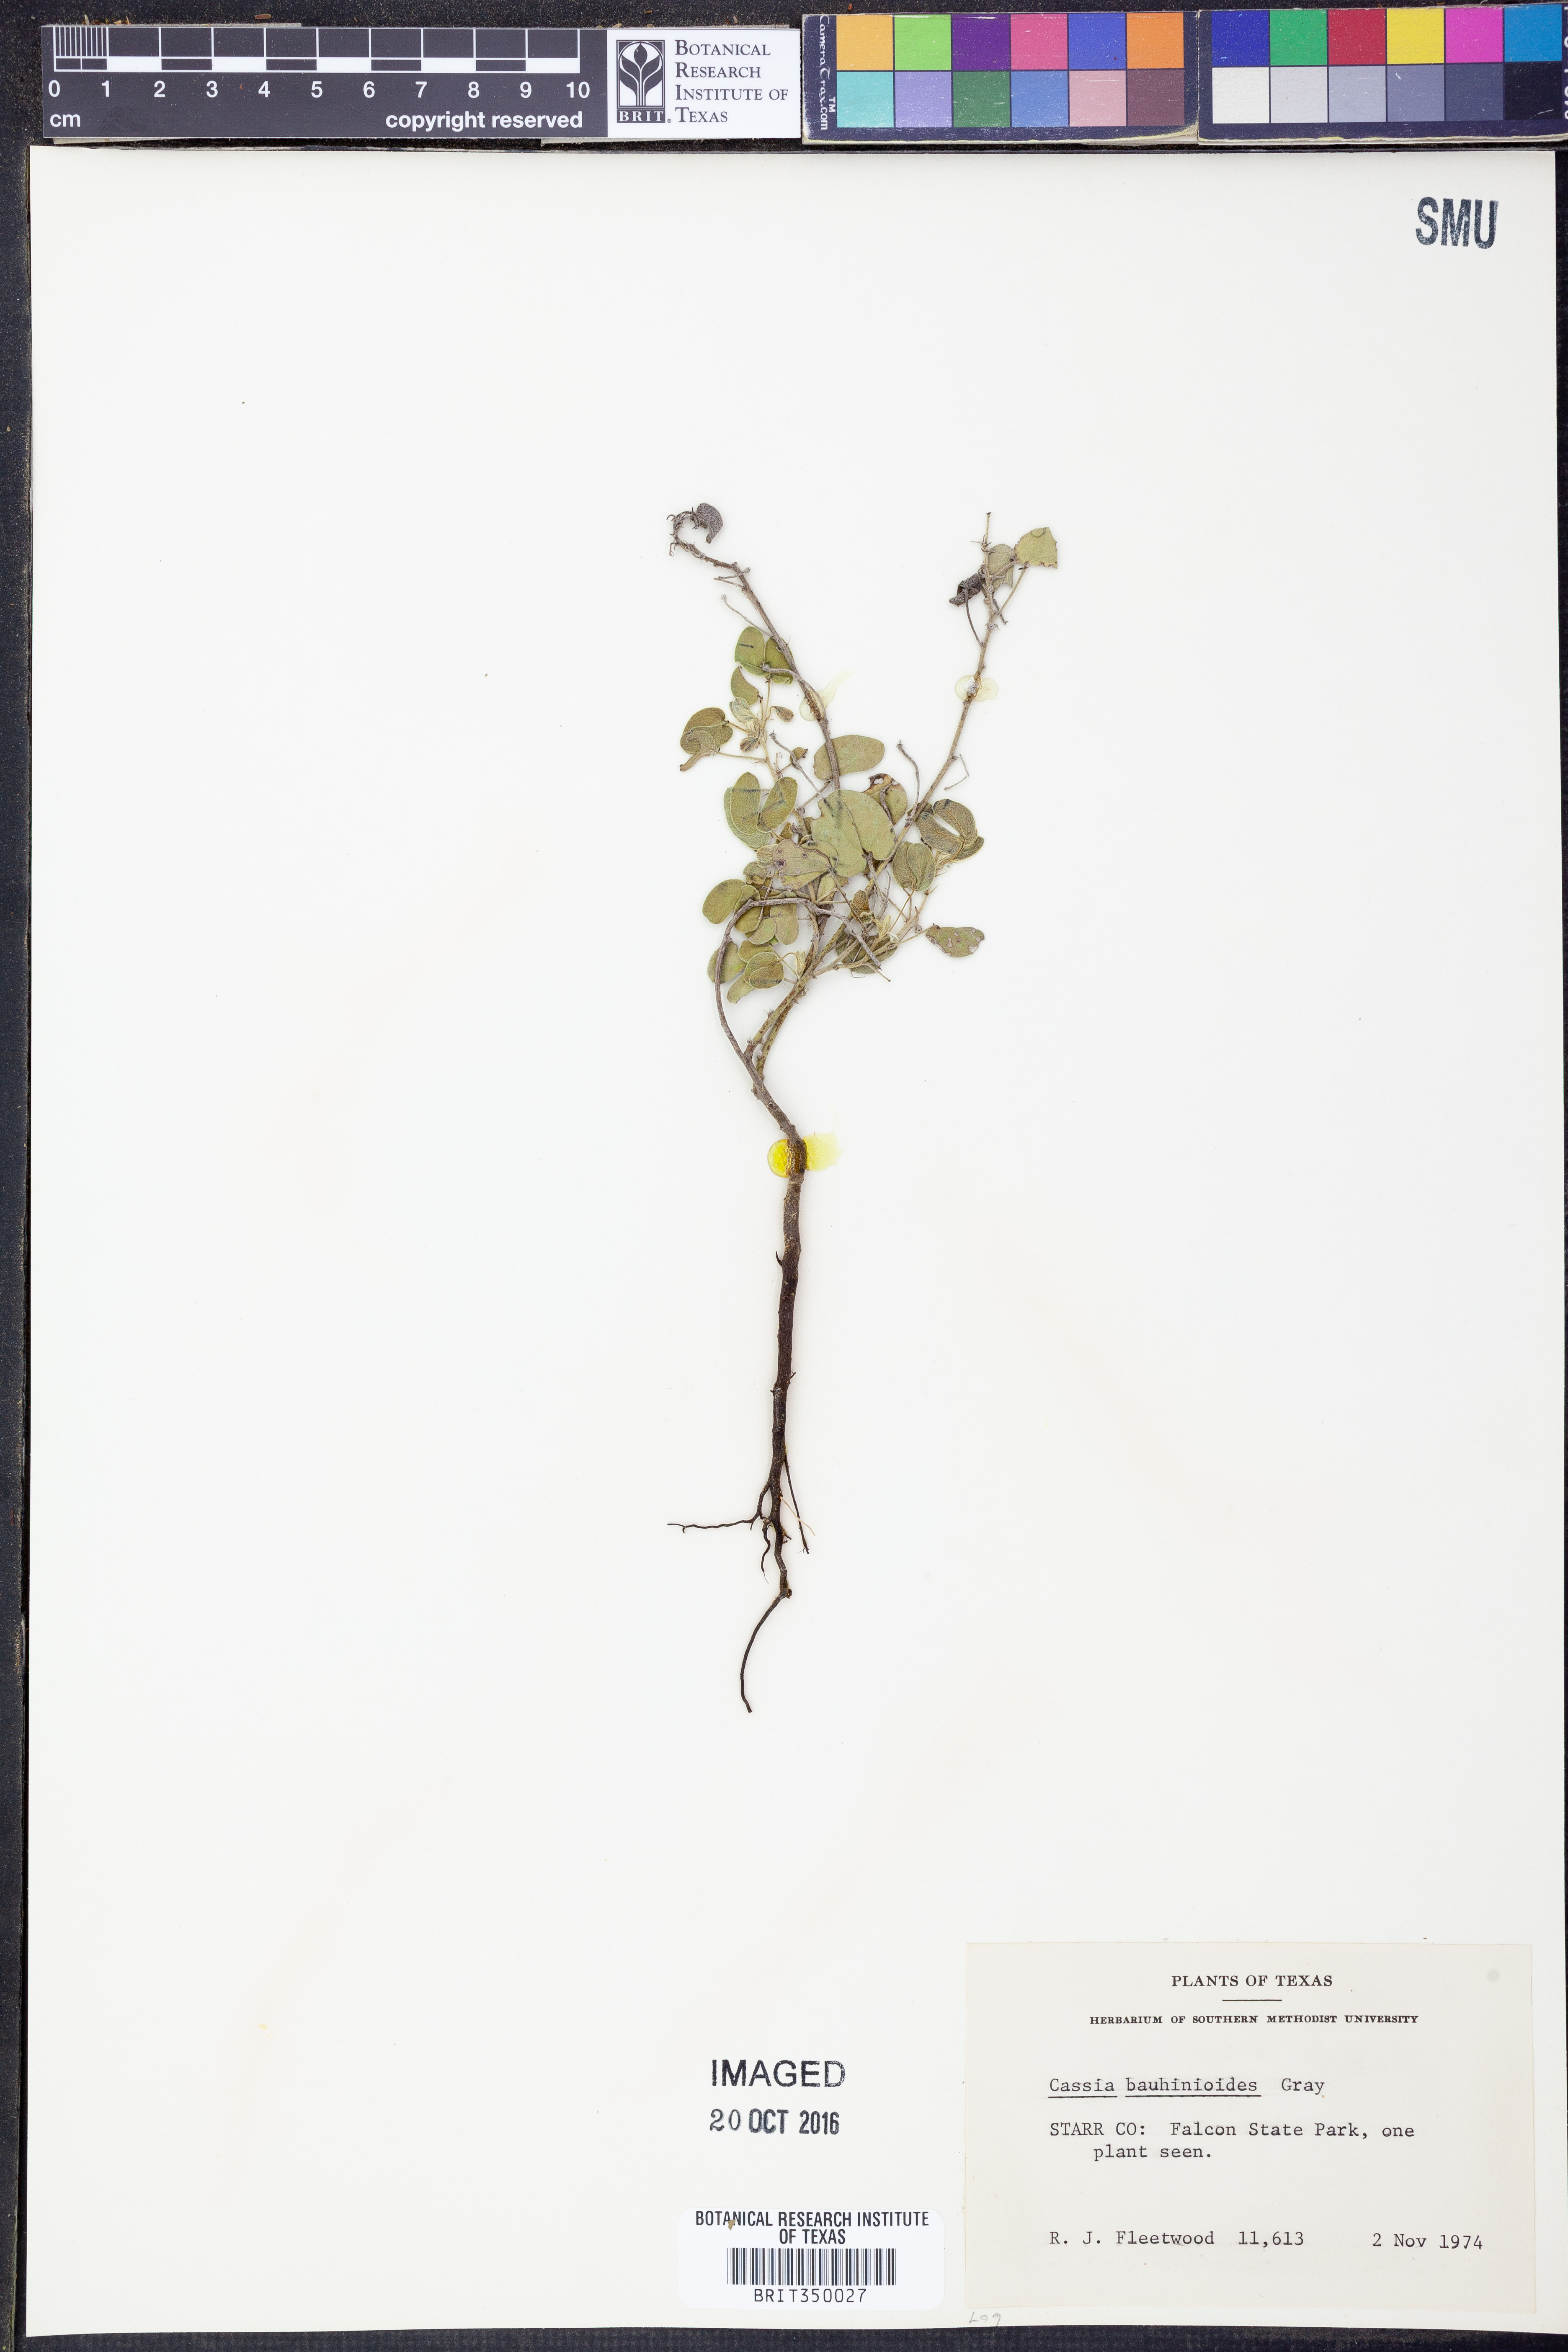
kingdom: Plantae
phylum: Tracheophyta
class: Magnoliopsida
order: Fabales
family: Fabaceae
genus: Senna
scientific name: Senna bauhinioides
